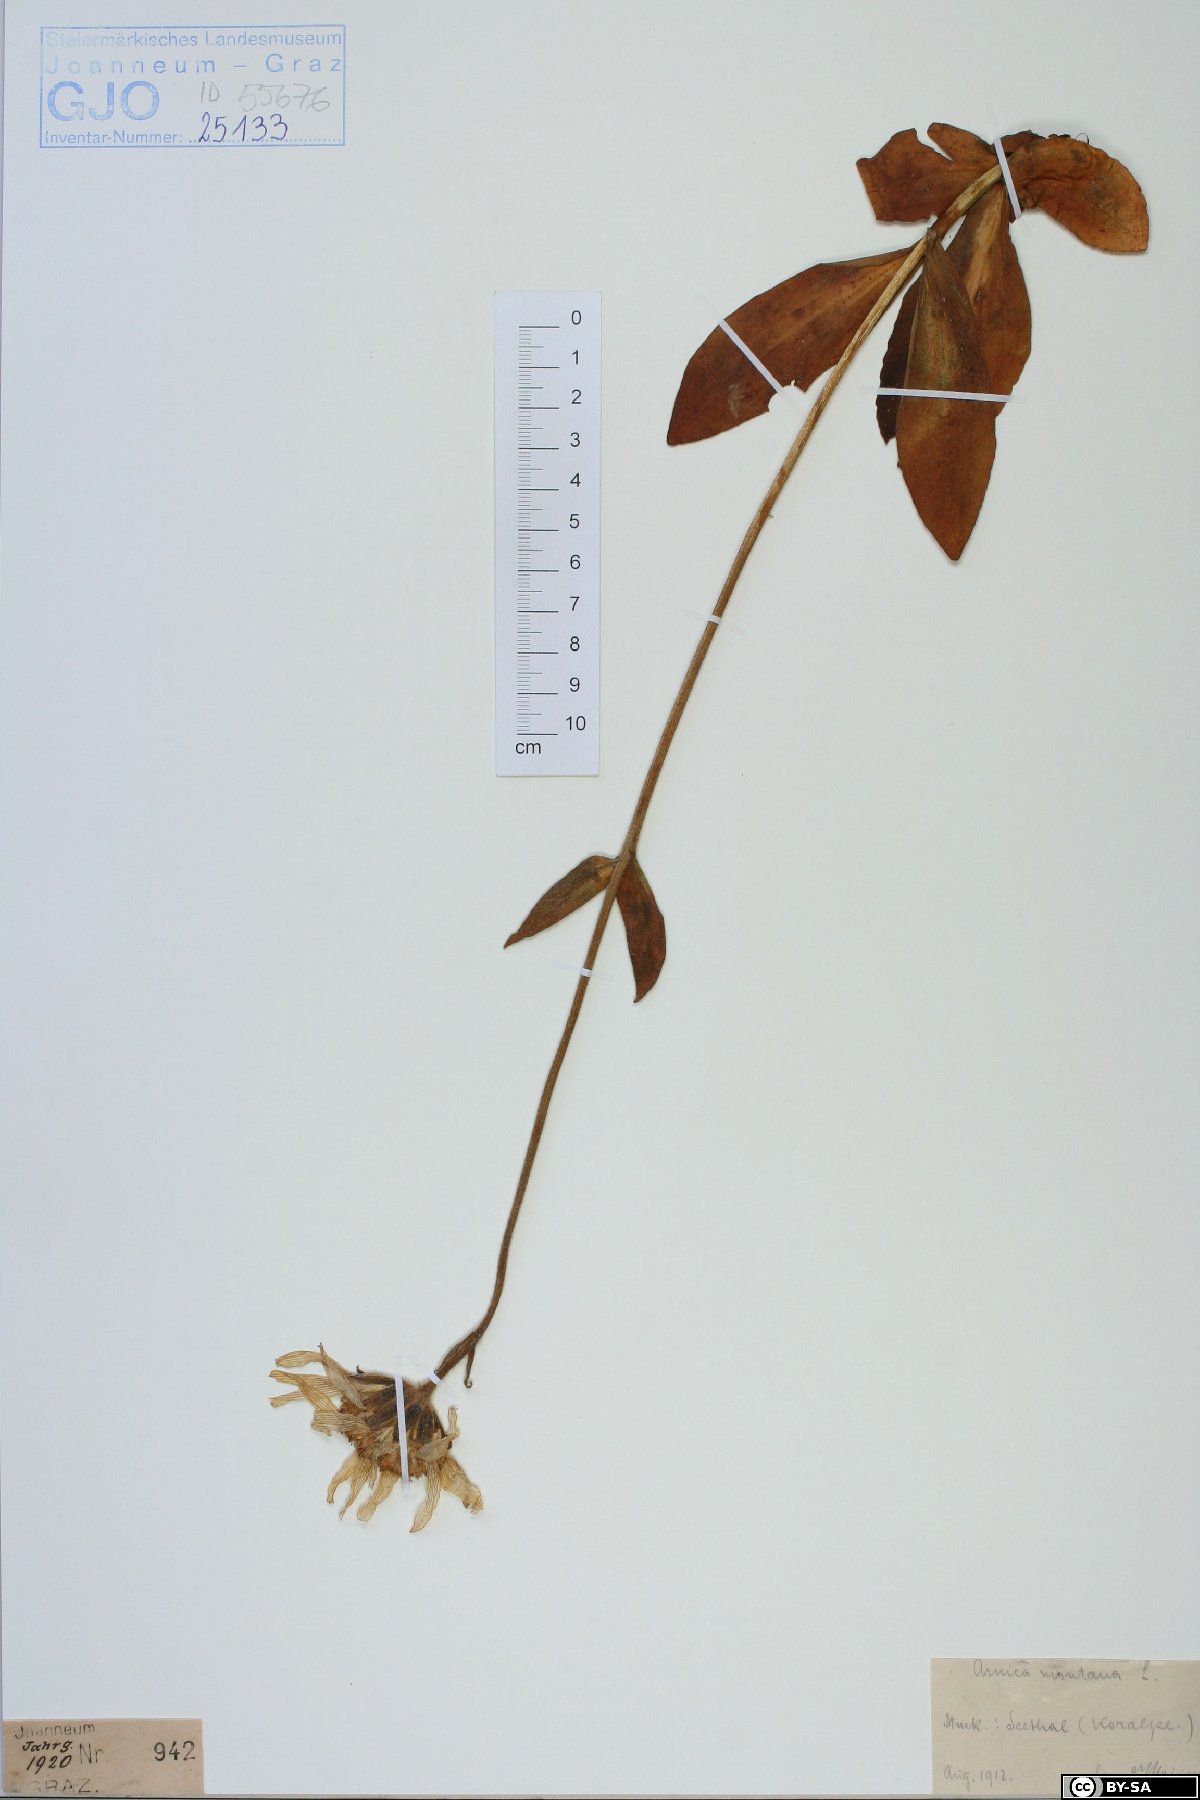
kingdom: Plantae
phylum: Tracheophyta
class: Magnoliopsida
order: Asterales
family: Asteraceae
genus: Arnica
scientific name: Arnica montana
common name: Leopard's bane
